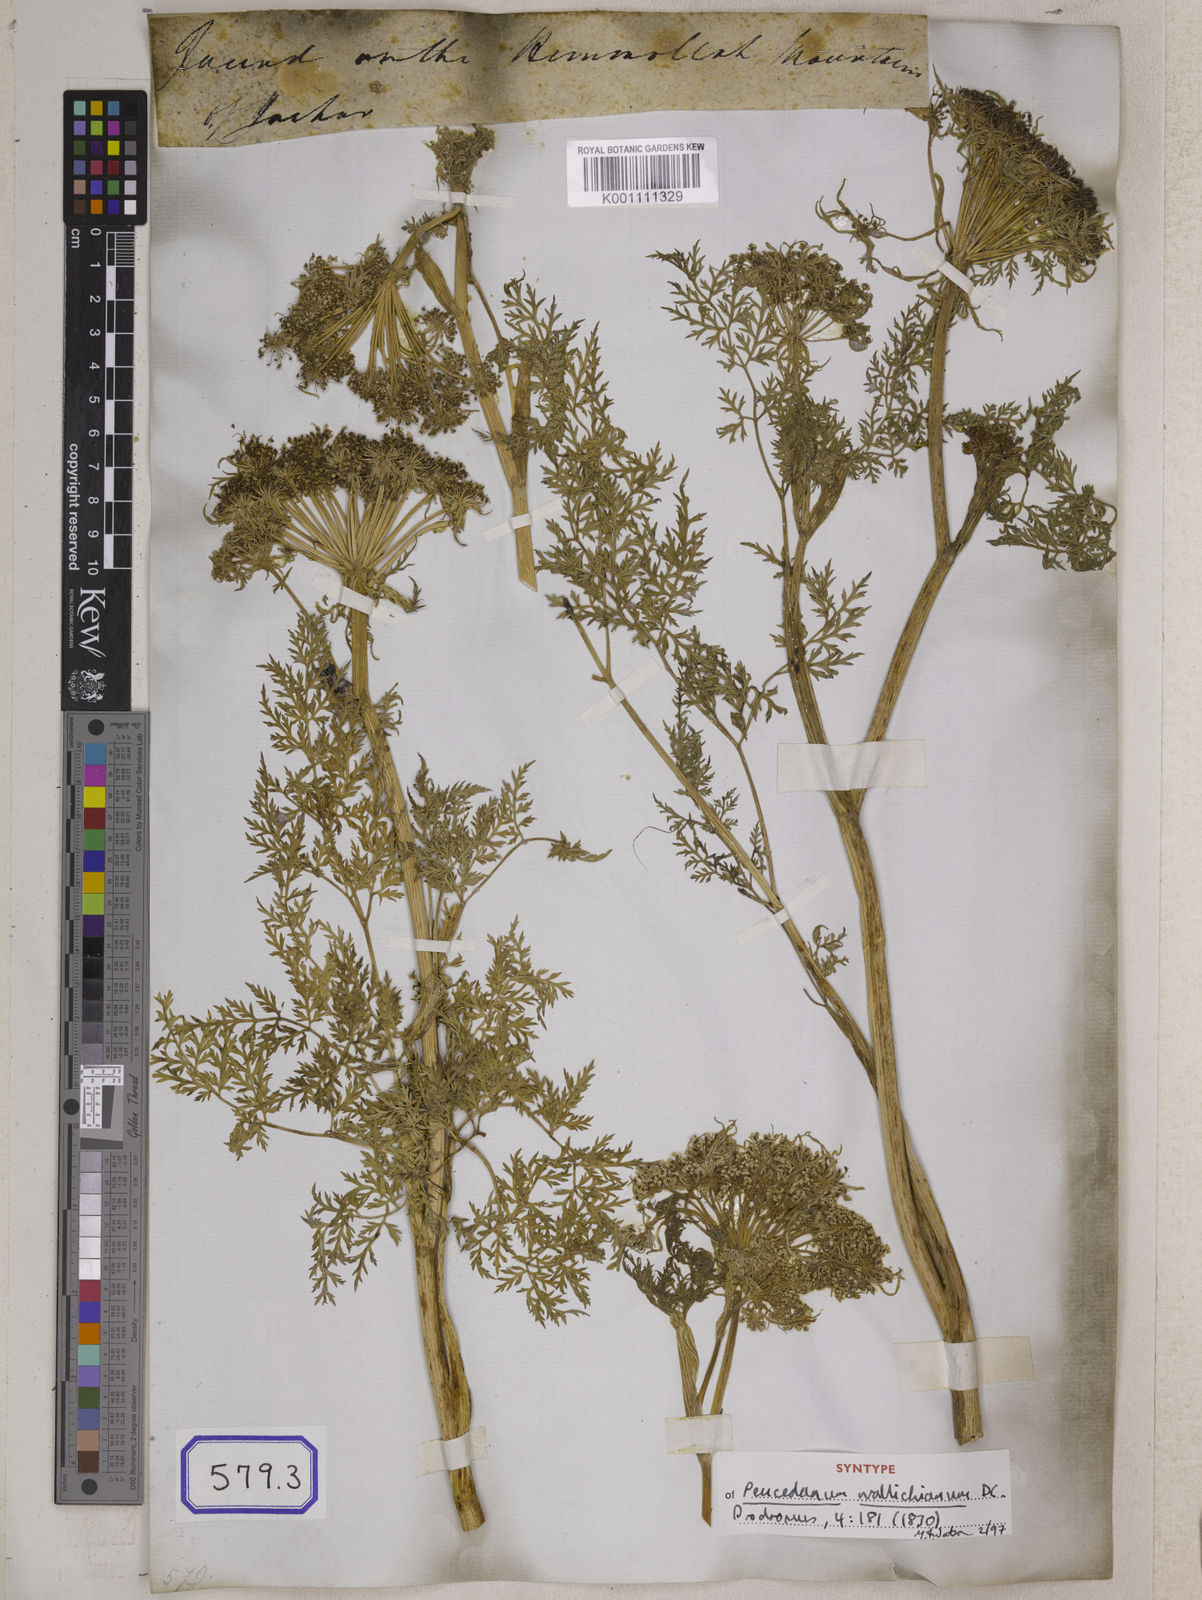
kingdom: Plantae
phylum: Tracheophyta
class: Magnoliopsida
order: Apiales
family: Apiaceae
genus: Selinum
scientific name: Selinum
